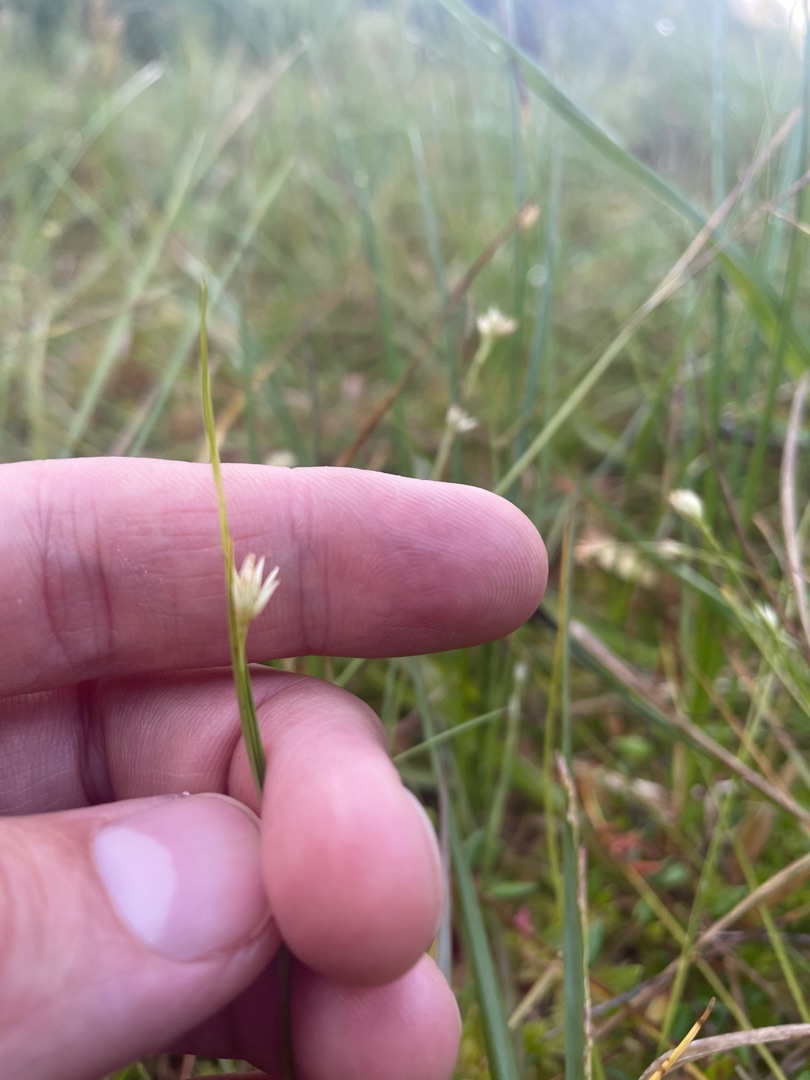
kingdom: Plantae
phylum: Tracheophyta
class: Liliopsida
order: Poales
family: Cyperaceae
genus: Rhynchospora
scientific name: Rhynchospora alba
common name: Hvid næbfrø
